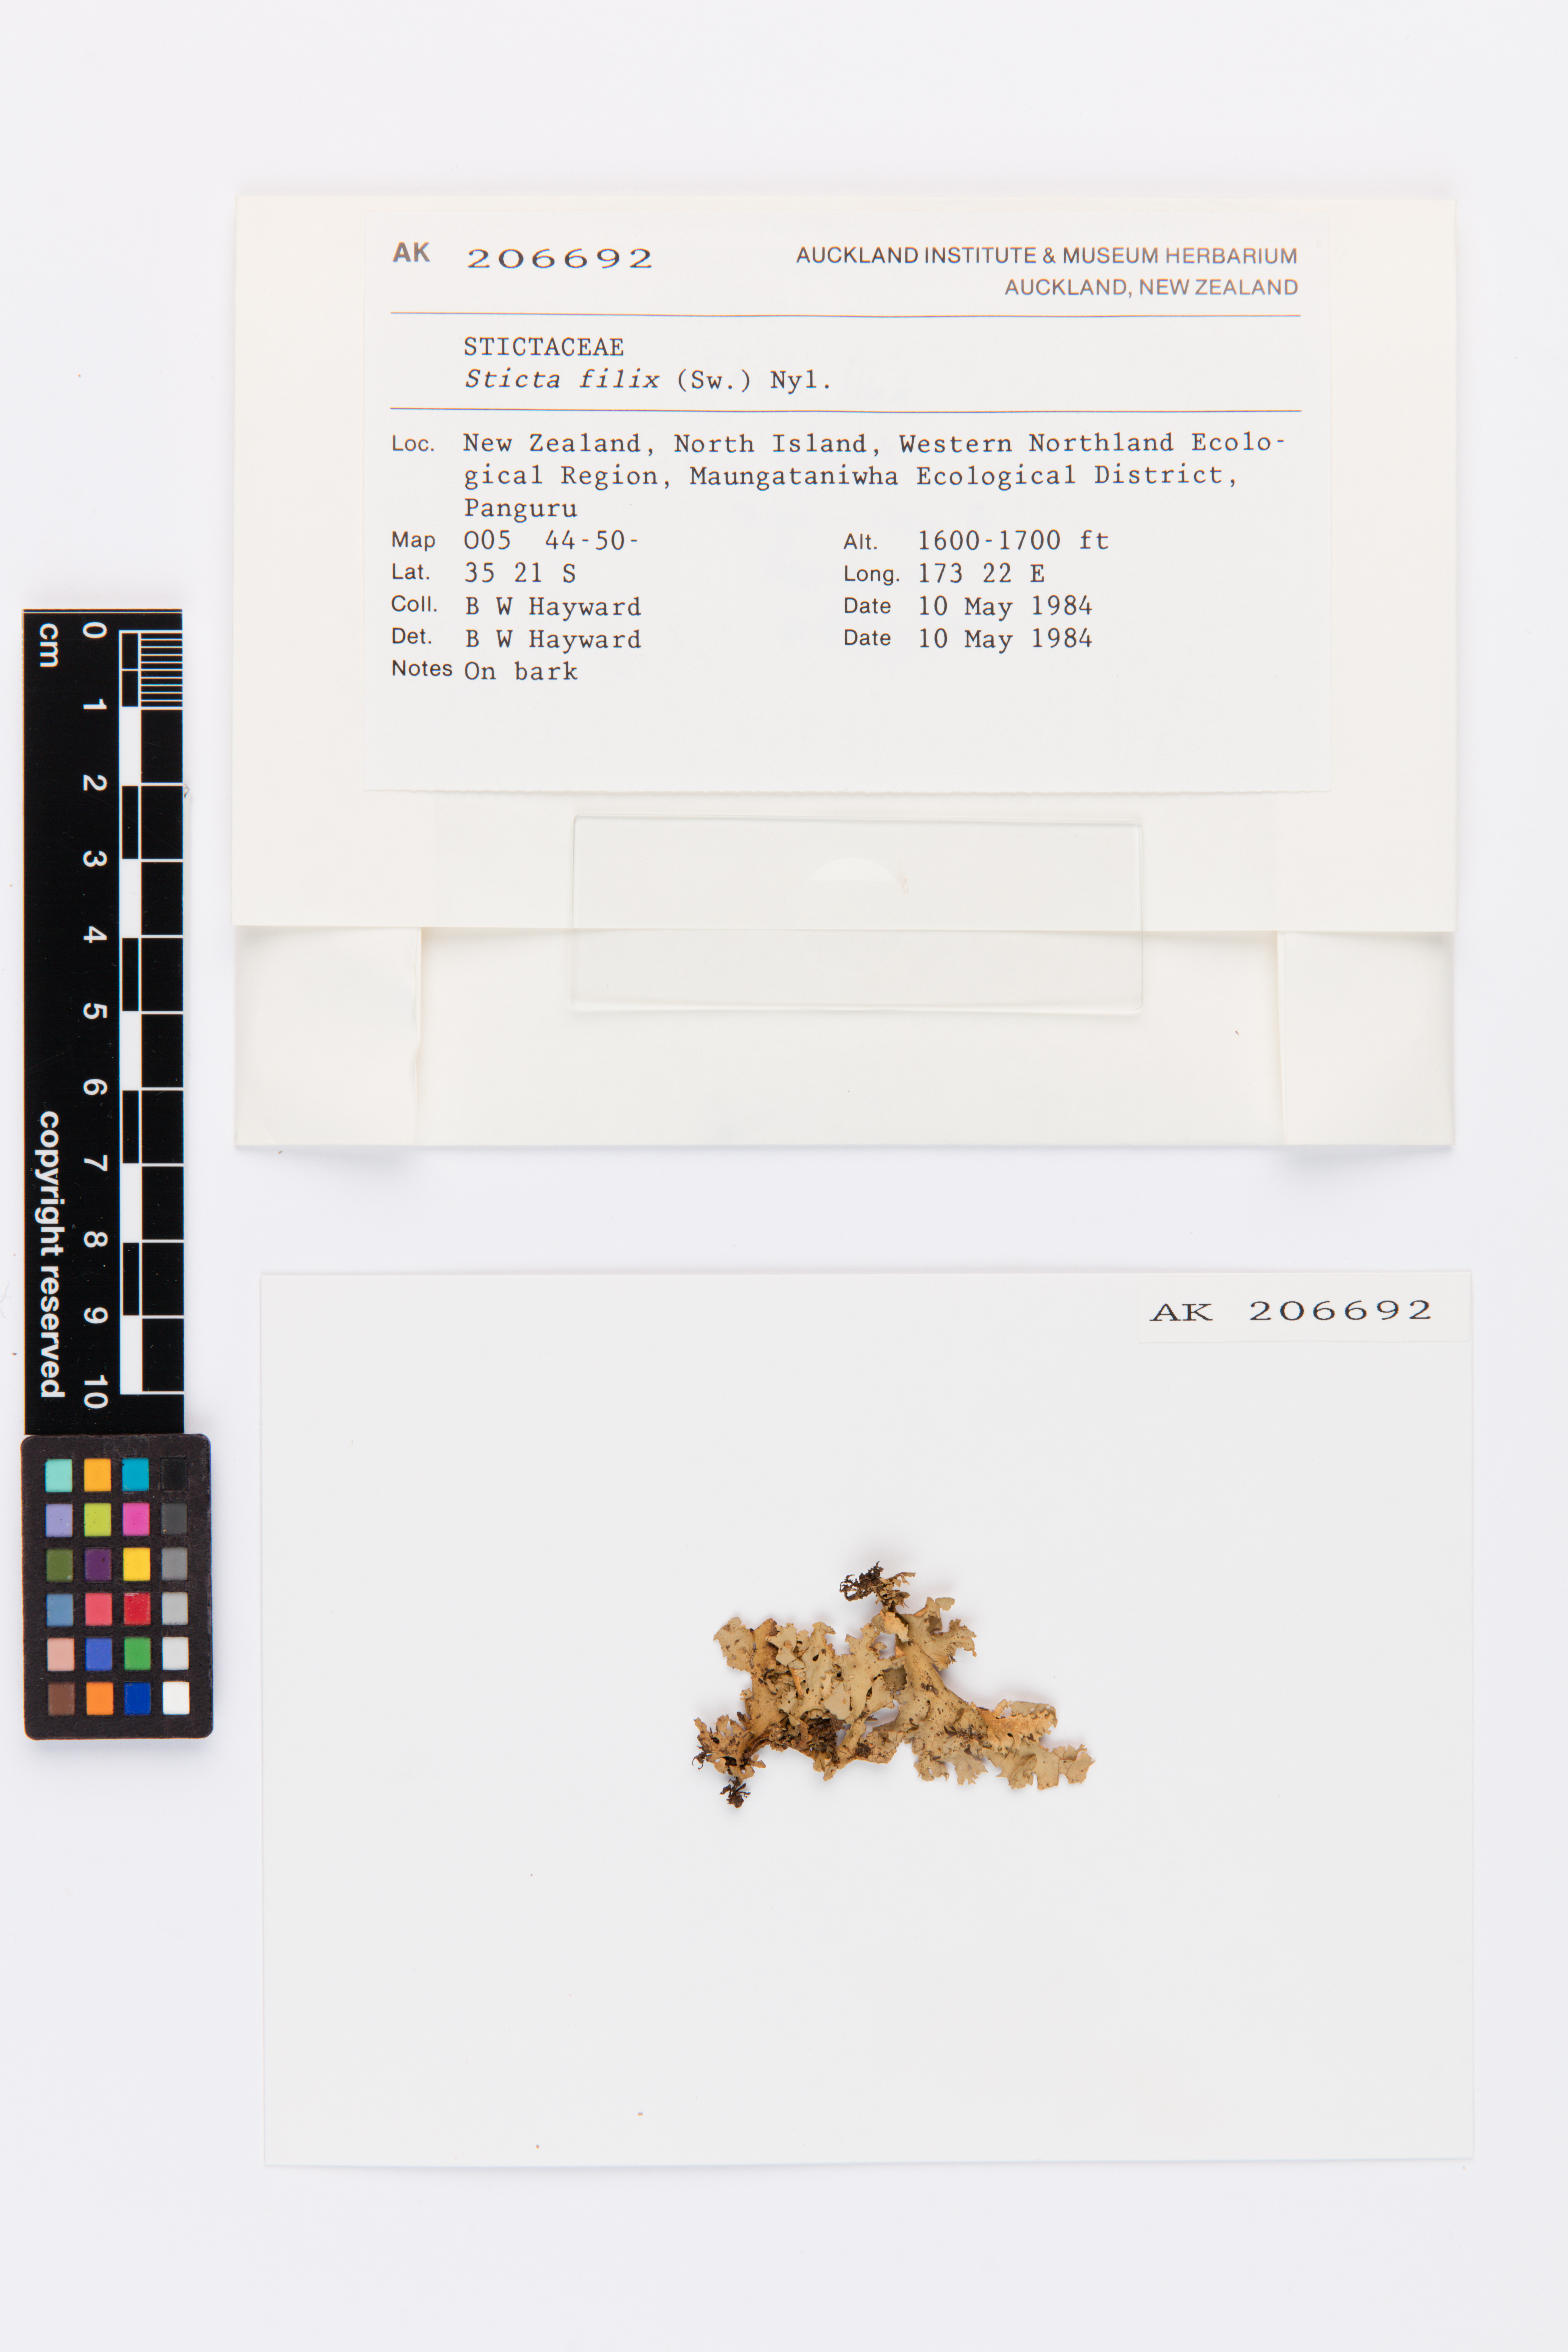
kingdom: Fungi
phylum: Ascomycota
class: Lecanoromycetes
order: Peltigerales
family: Lobariaceae
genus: Sticta
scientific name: Sticta filix
